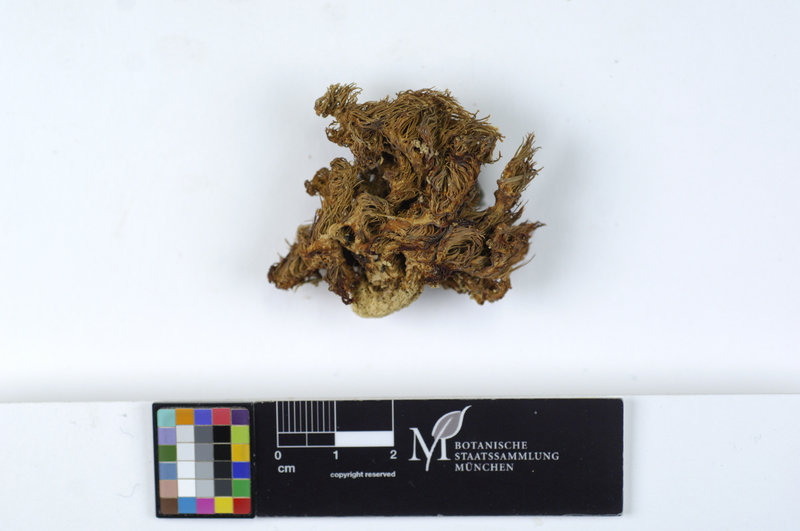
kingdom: Plantae
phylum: Tracheophyta
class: Magnoliopsida
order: Fagales
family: Fagaceae
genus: Fagus
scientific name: Fagus sylvatica
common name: Beech
